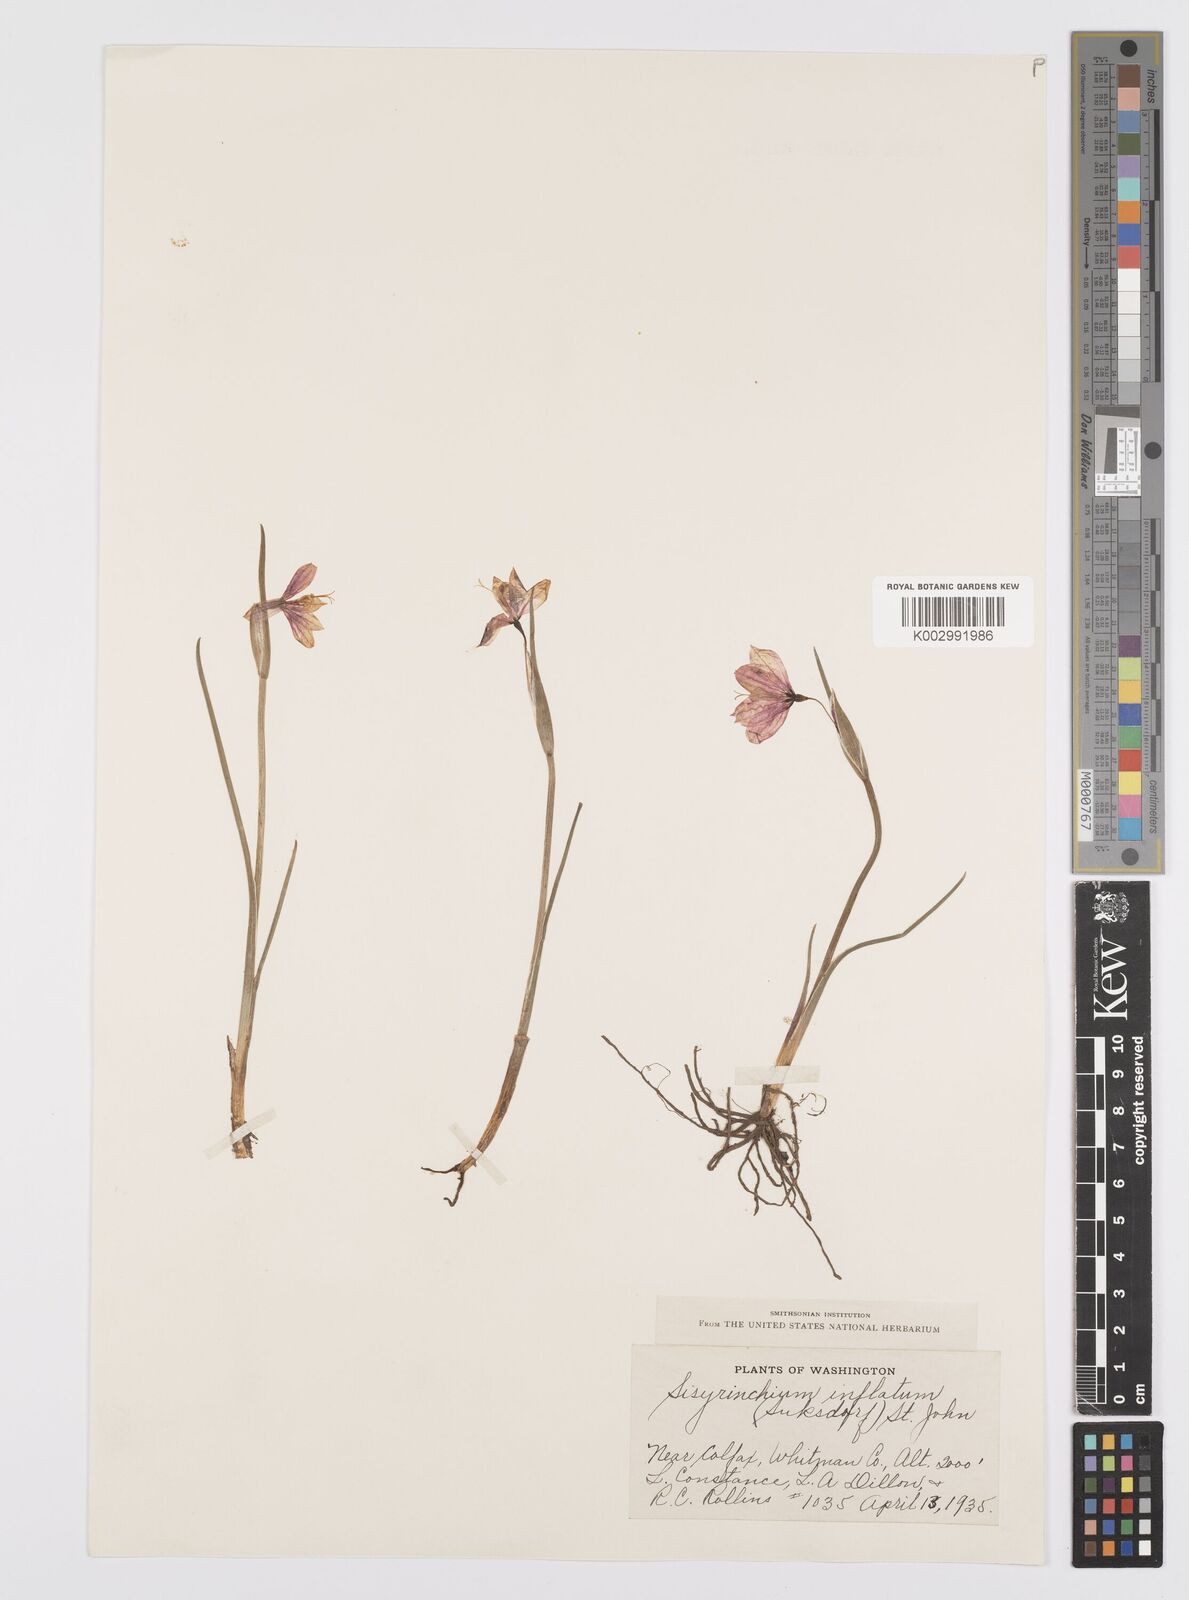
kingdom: Plantae
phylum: Tracheophyta
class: Liliopsida
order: Asparagales
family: Iridaceae
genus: Olsynium
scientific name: Olsynium douglasii
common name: Douglas' grasswidow
